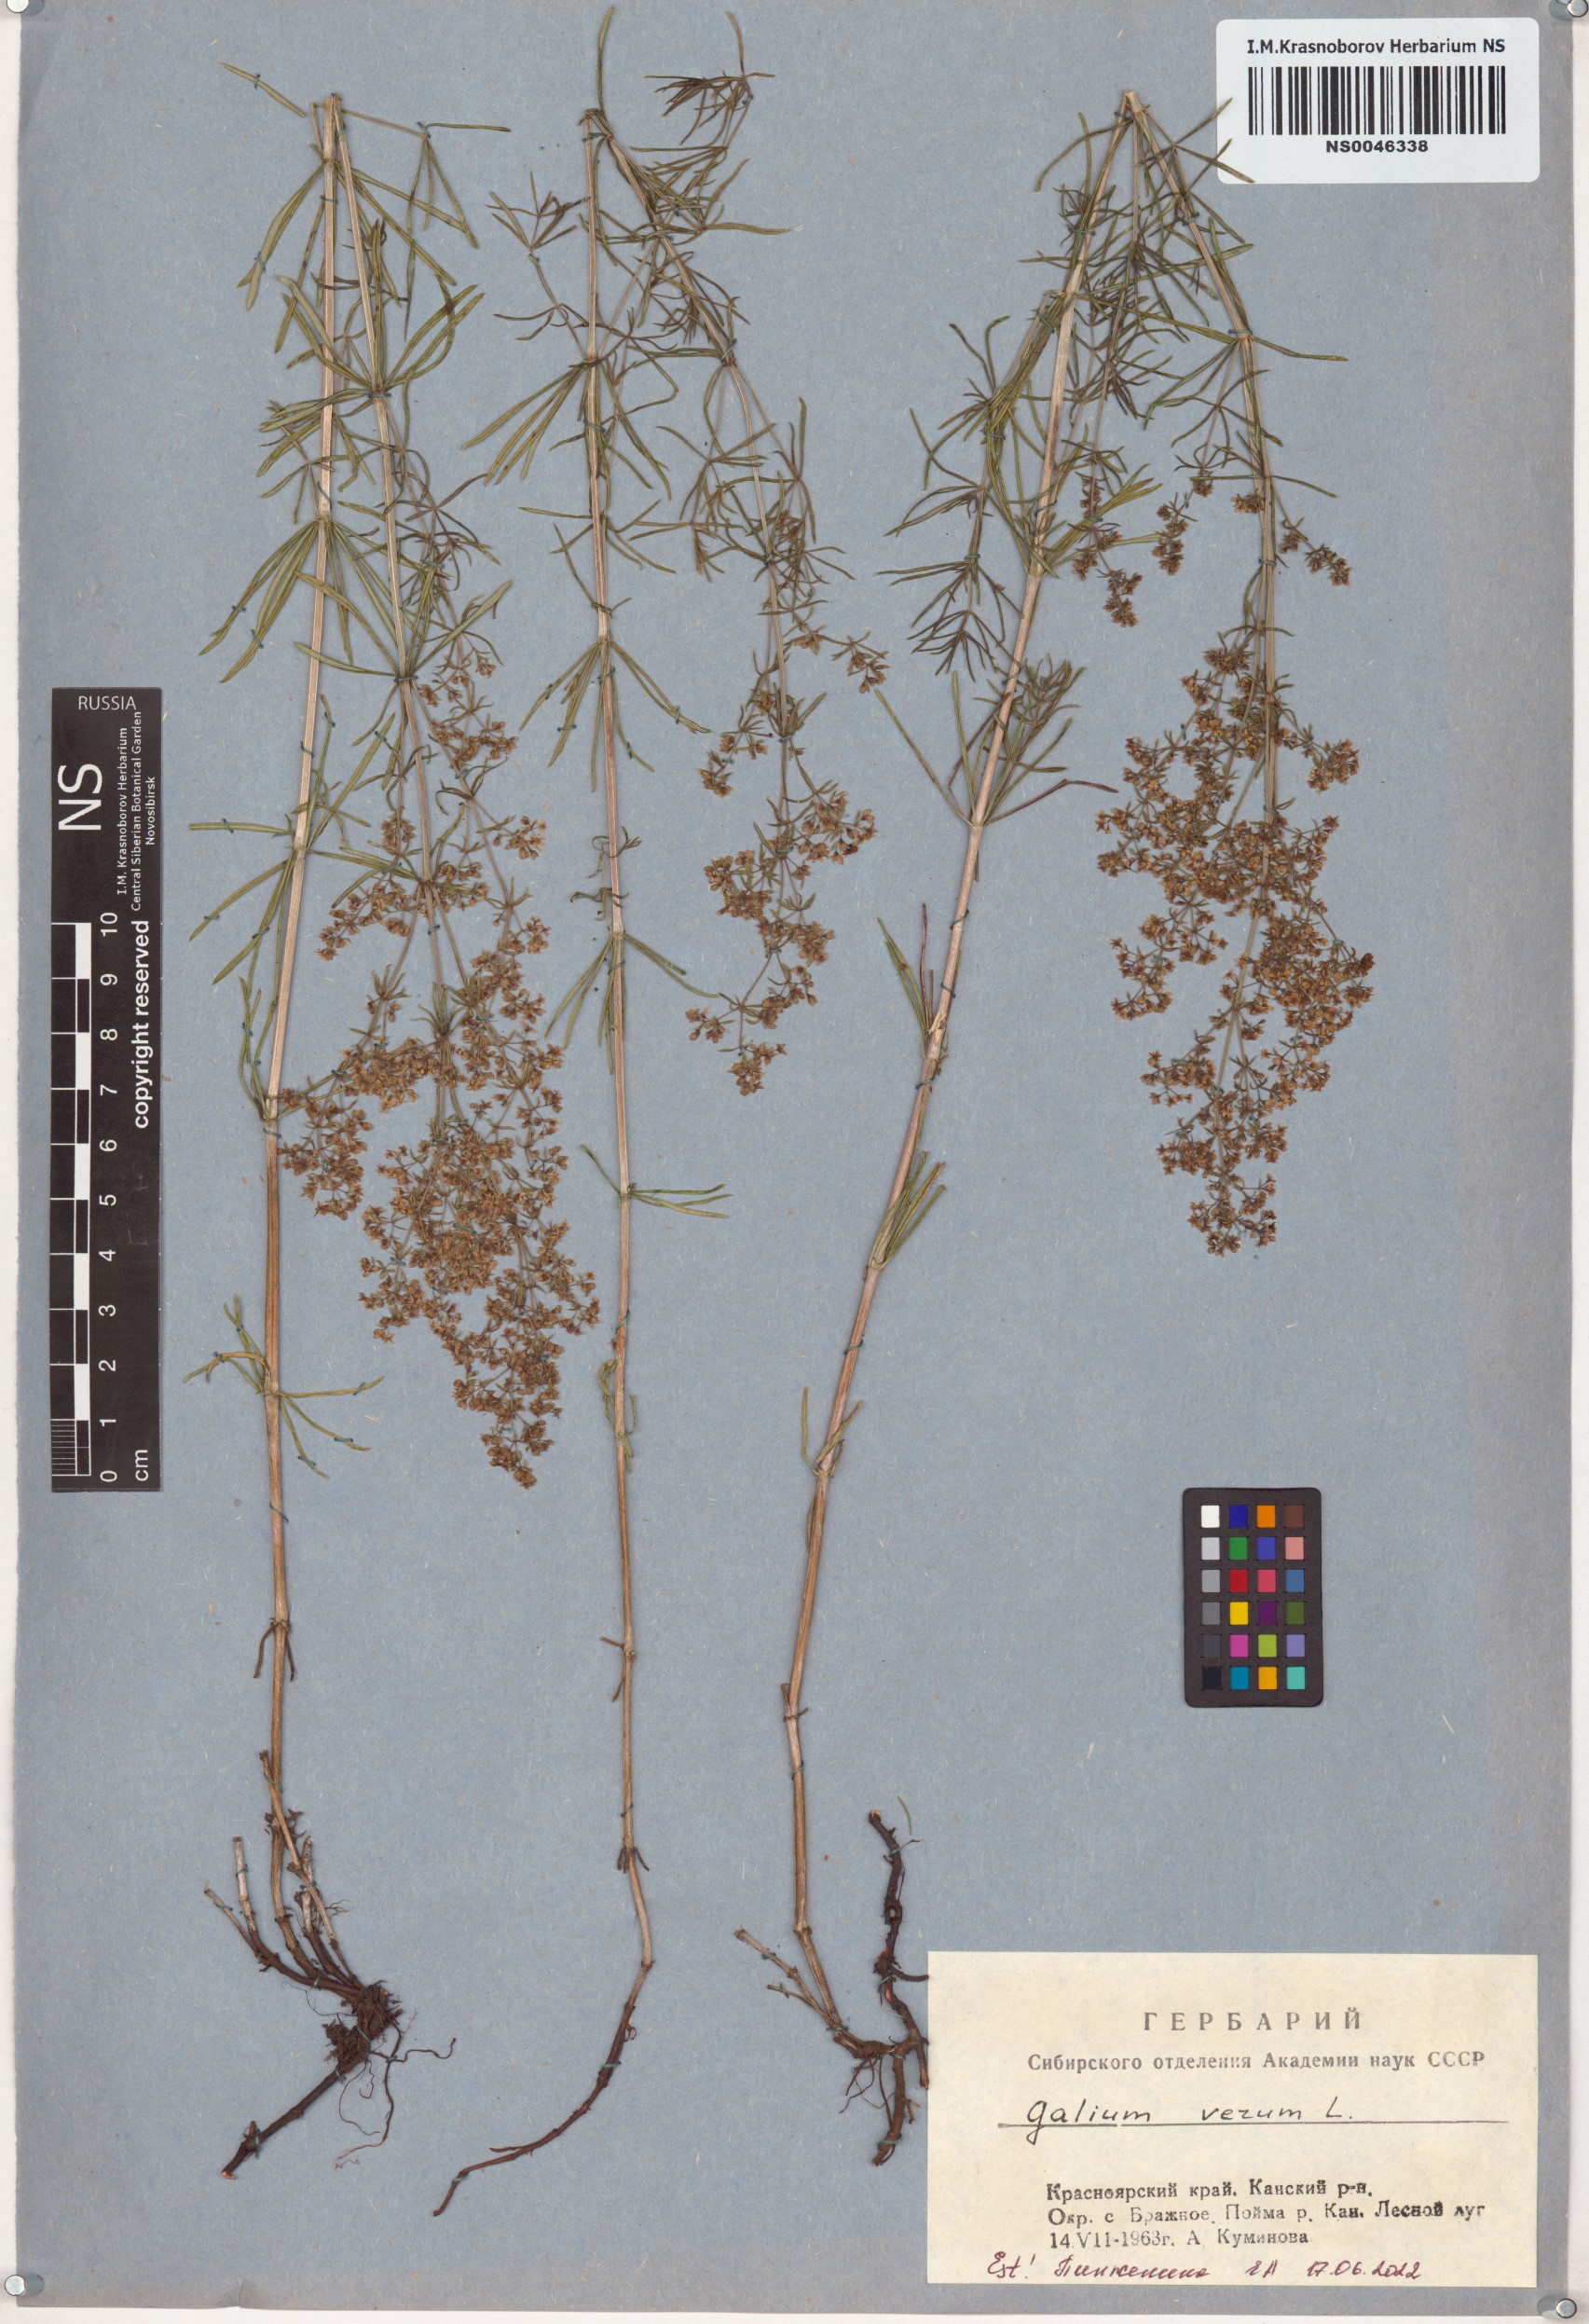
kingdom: Plantae
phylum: Tracheophyta
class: Magnoliopsida
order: Gentianales
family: Rubiaceae
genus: Galium
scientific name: Galium verum
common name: Lady's bedstraw
